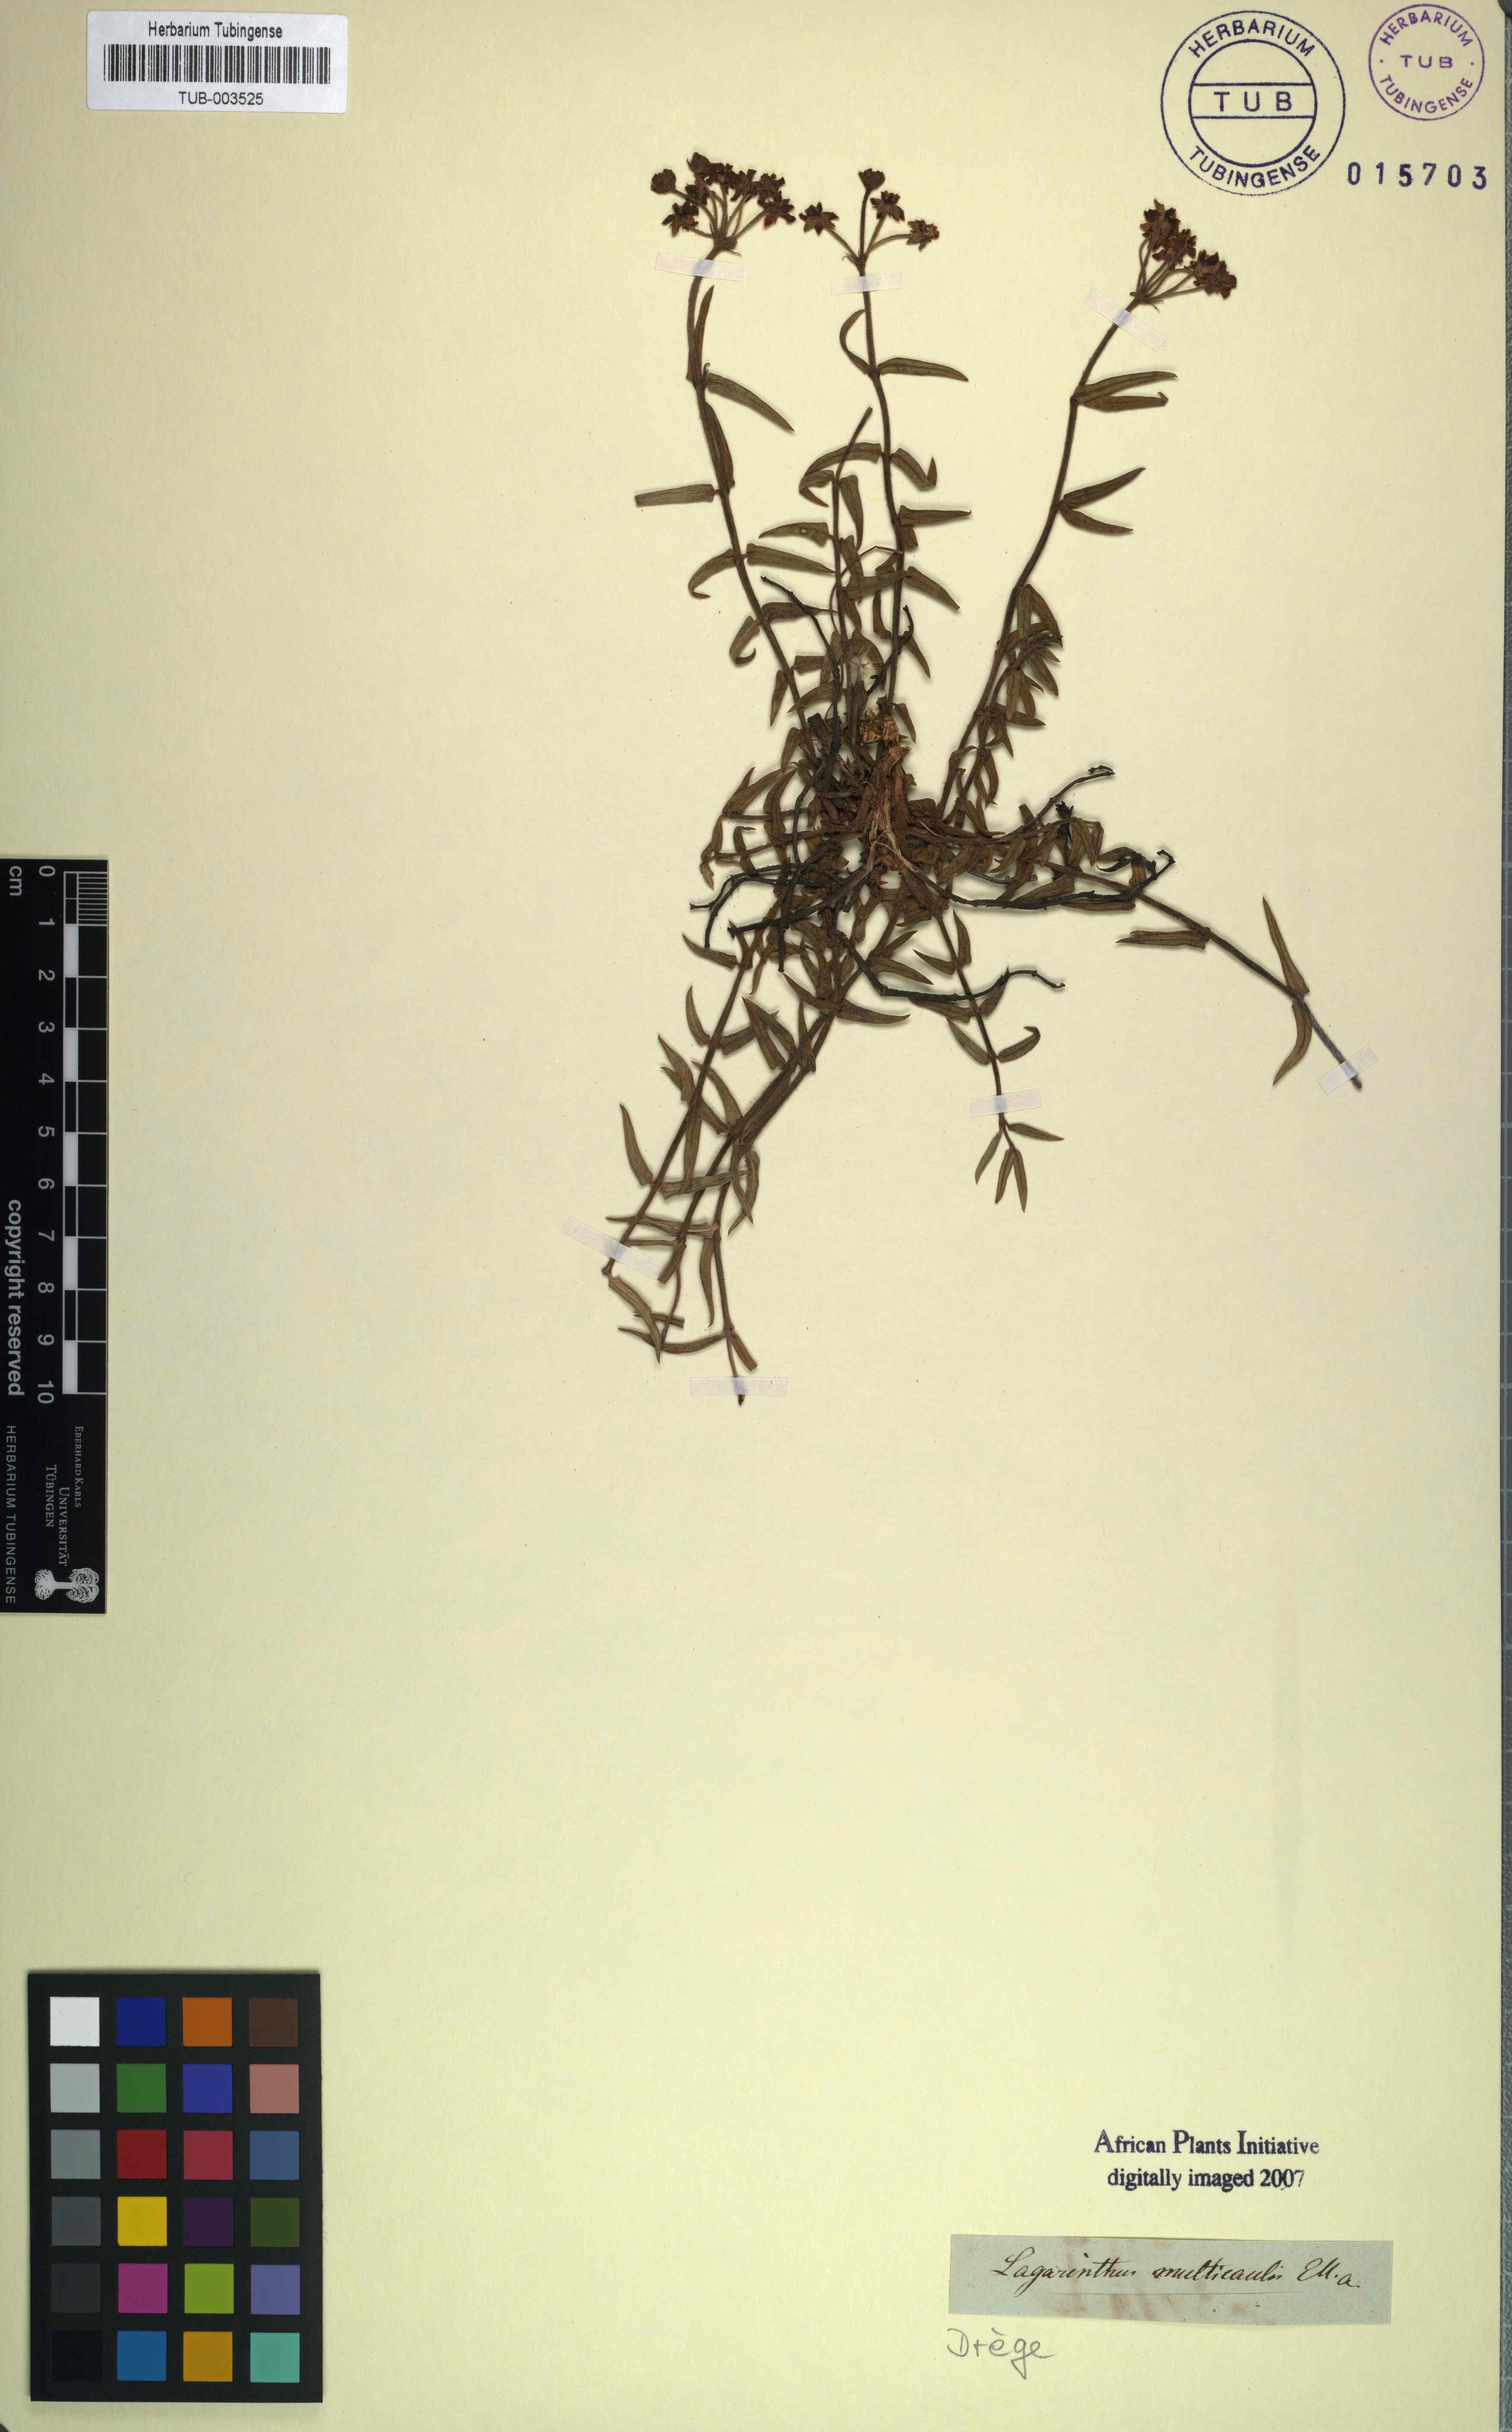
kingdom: Plantae
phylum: Tracheophyta
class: Magnoliopsida
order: Gentianales
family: Apocynaceae
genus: Asclepias
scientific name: Asclepias depressa
